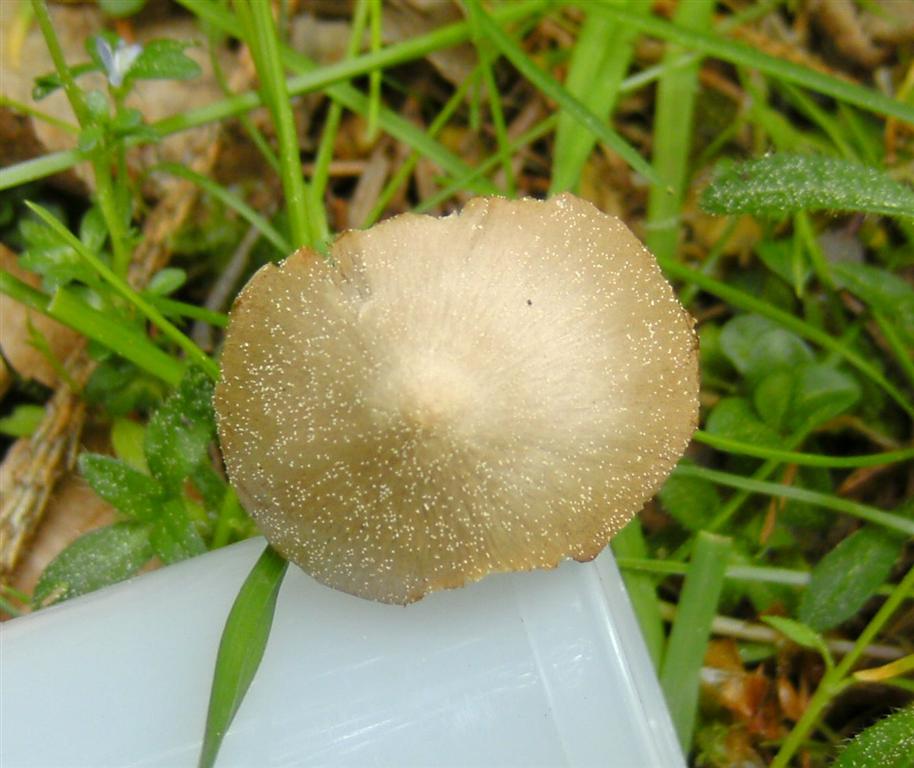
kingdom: Fungi
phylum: Basidiomycota
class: Agaricomycetes
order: Agaricales
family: Entolomataceae
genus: Entoloma
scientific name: Entoloma pallescens
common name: tidlig rødblad
